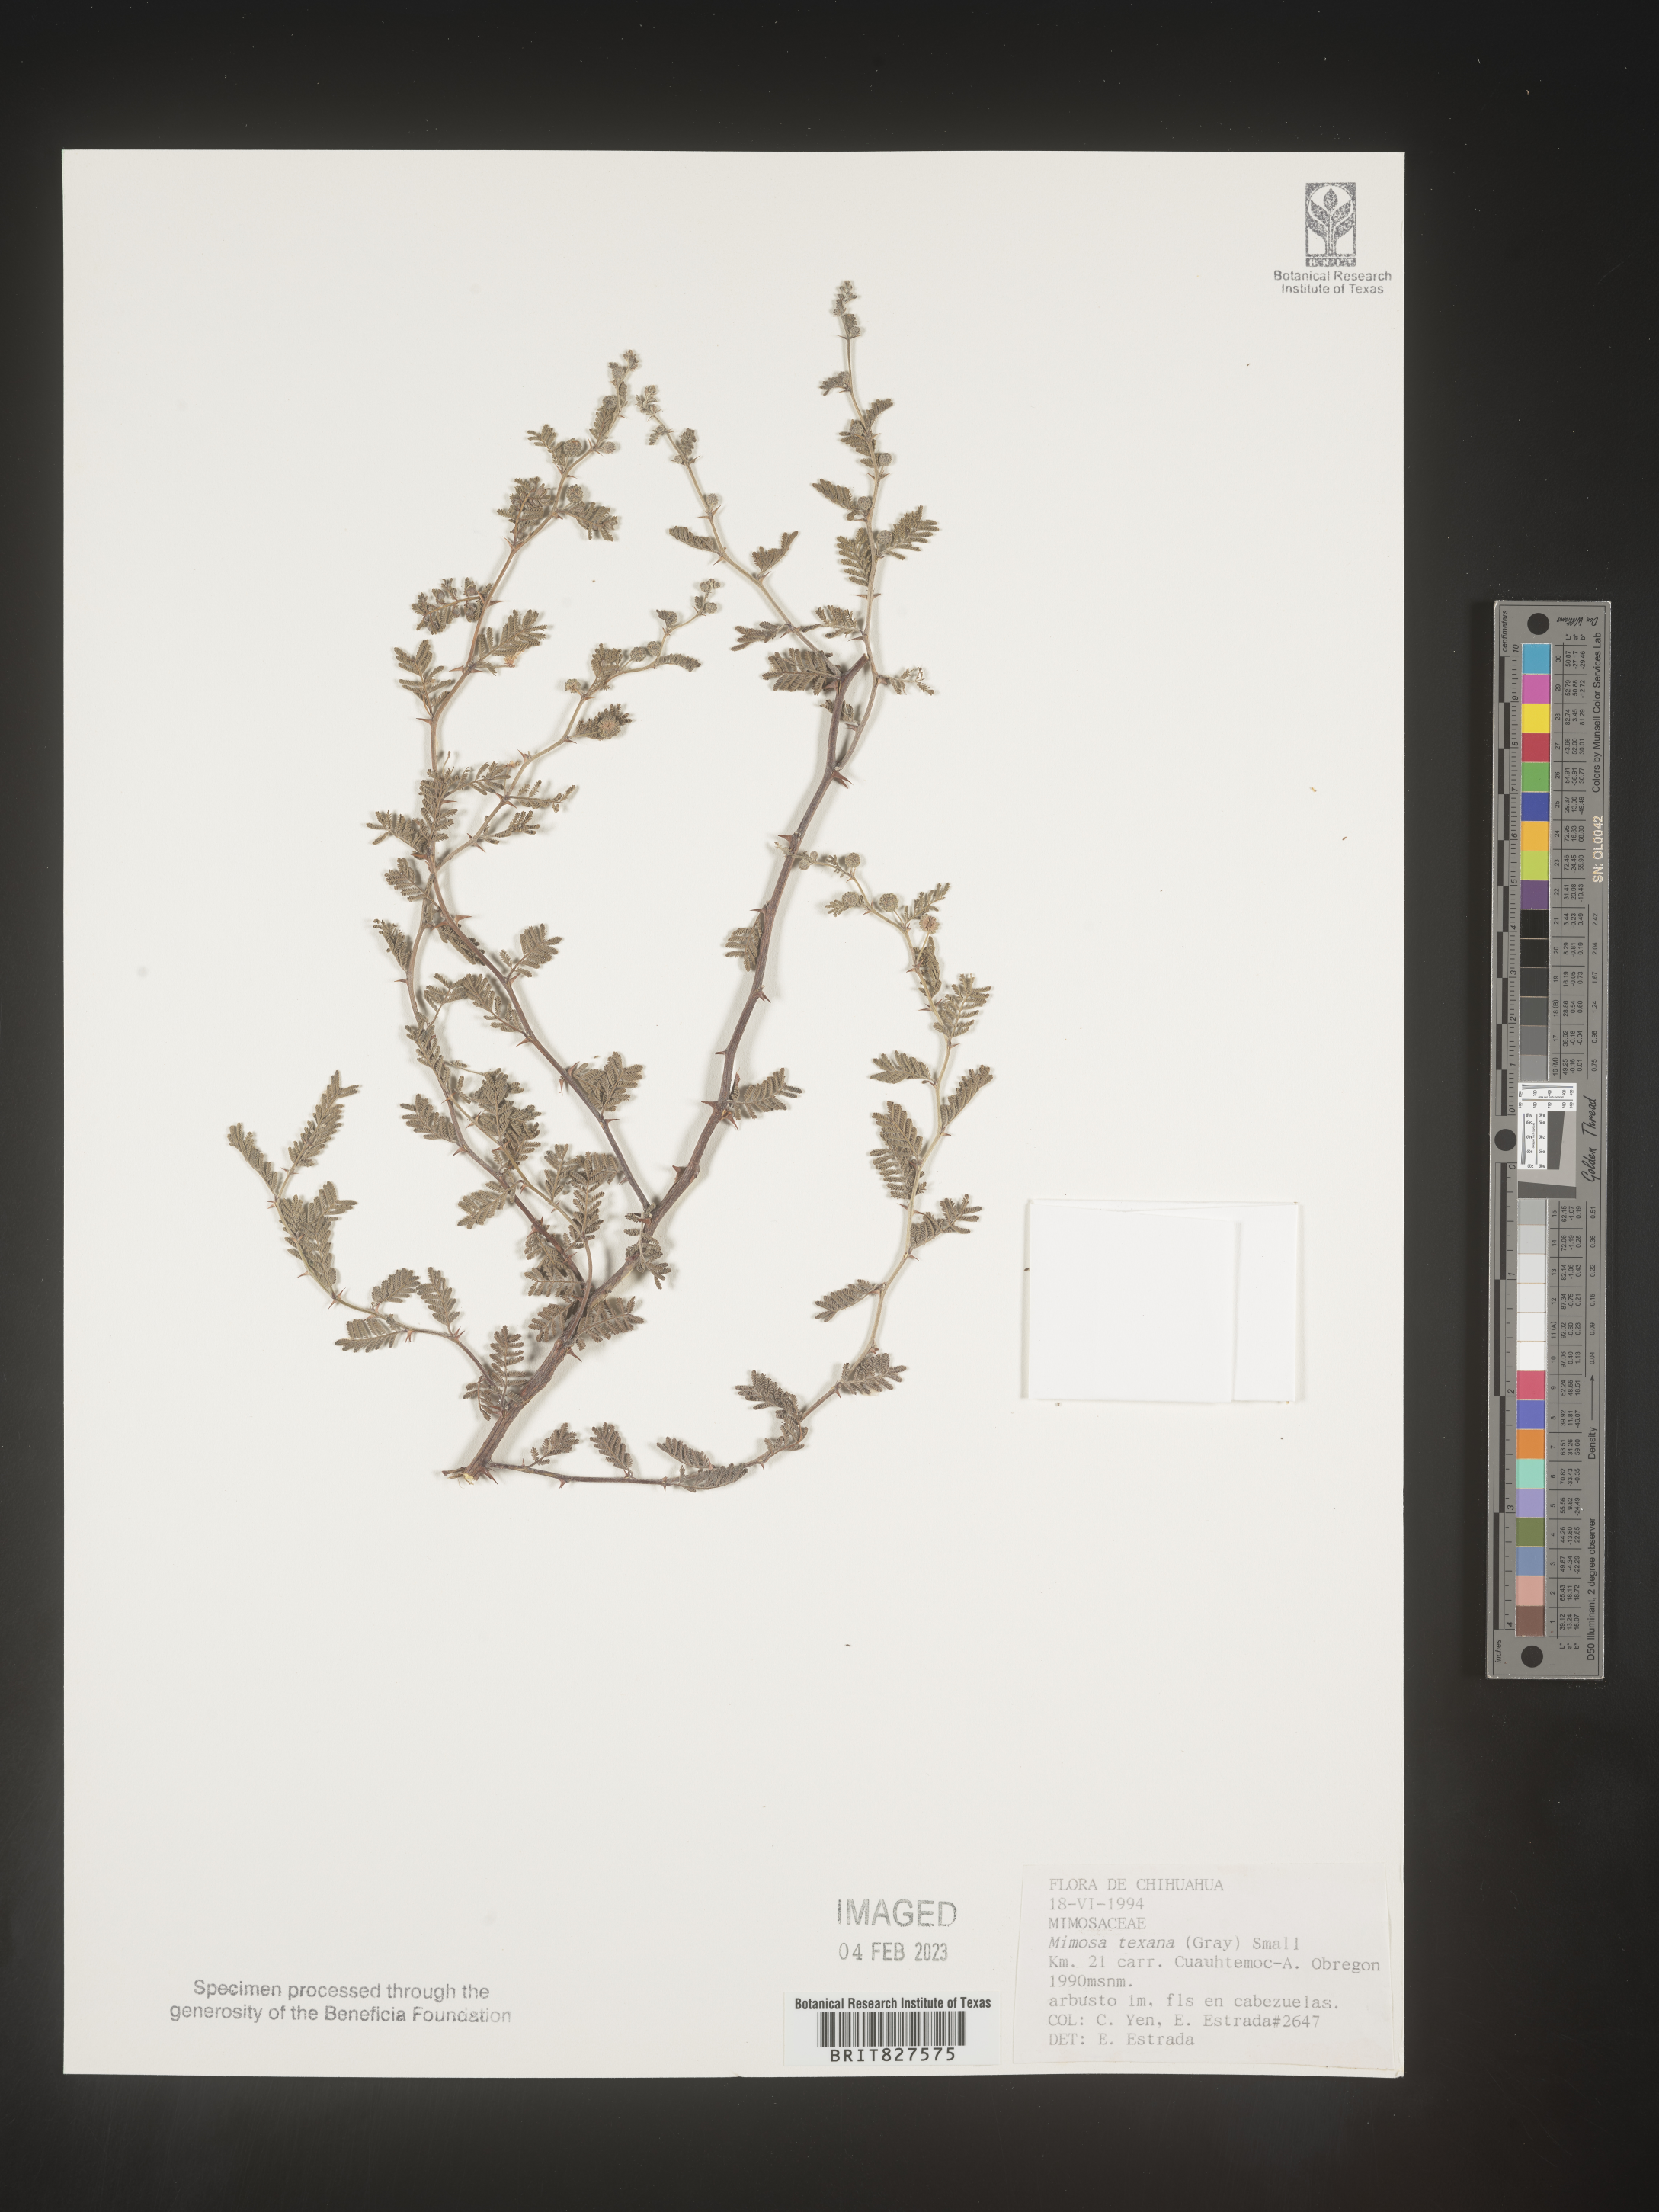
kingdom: Plantae
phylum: Tracheophyta
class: Magnoliopsida
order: Fabales
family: Fabaceae
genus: Mimosa
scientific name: Mimosa
